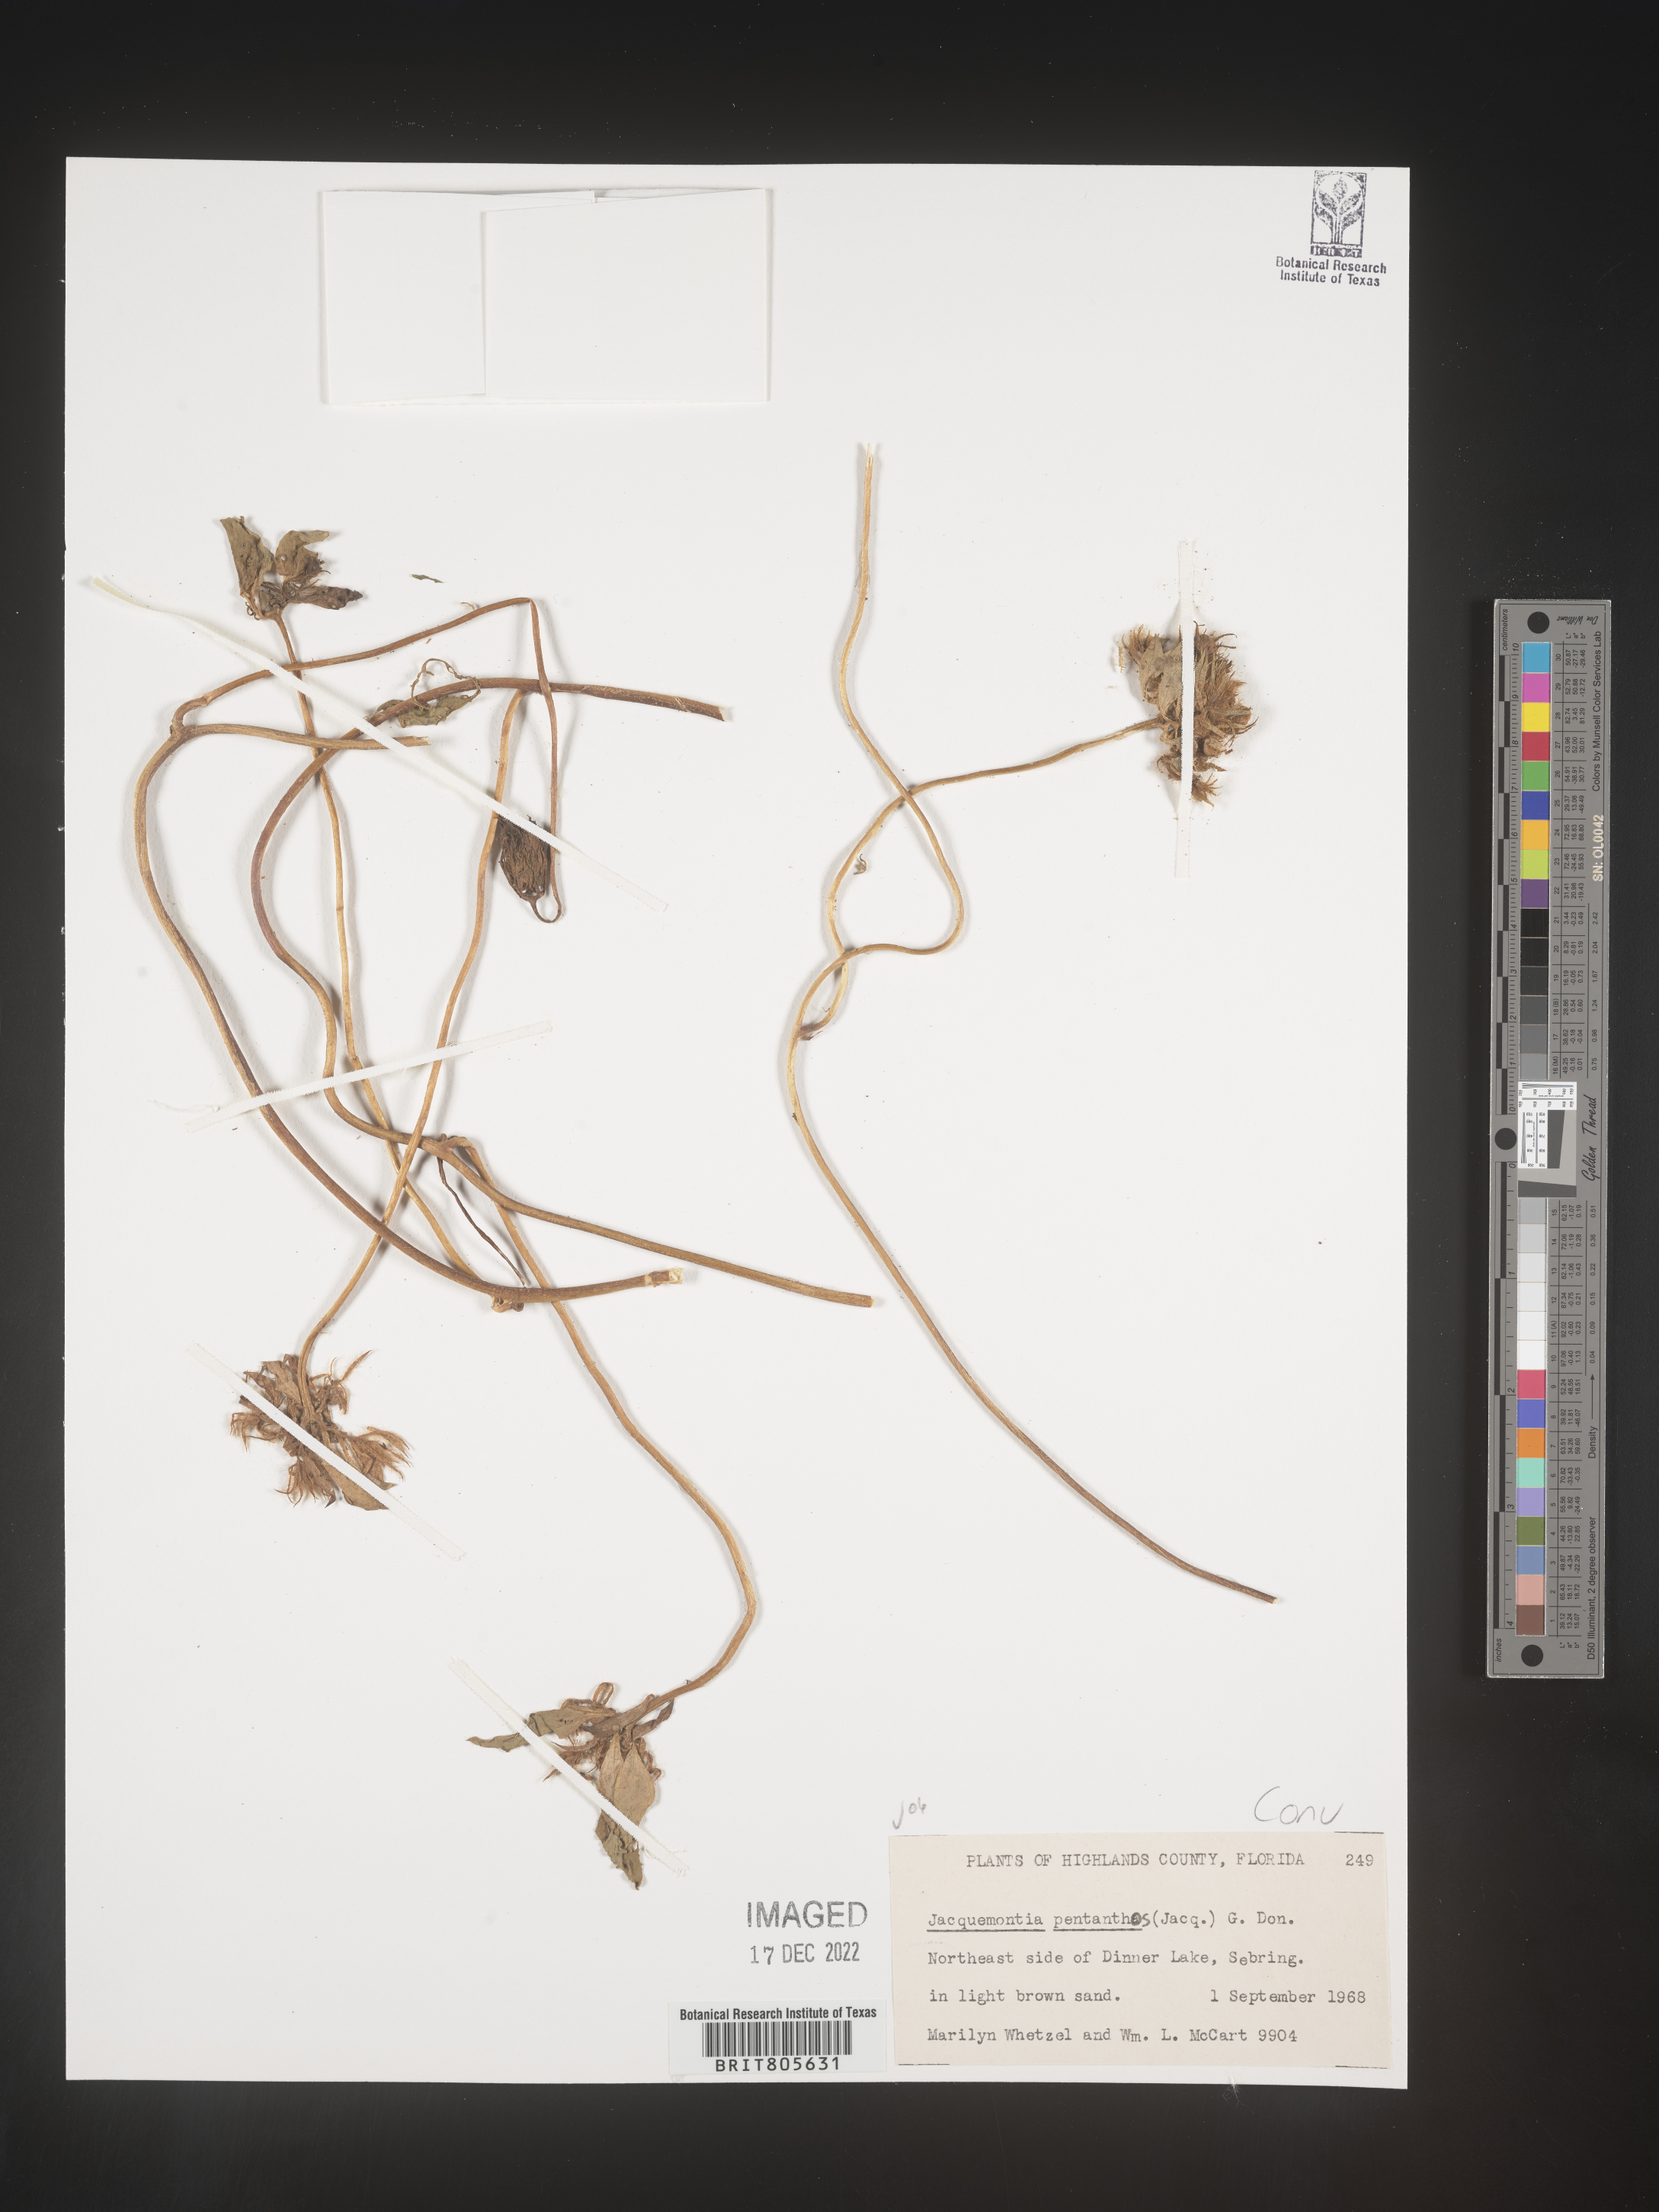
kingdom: Plantae
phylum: Tracheophyta
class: Magnoliopsida
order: Solanales
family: Convolvulaceae
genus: Jacquemontia
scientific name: Jacquemontia
